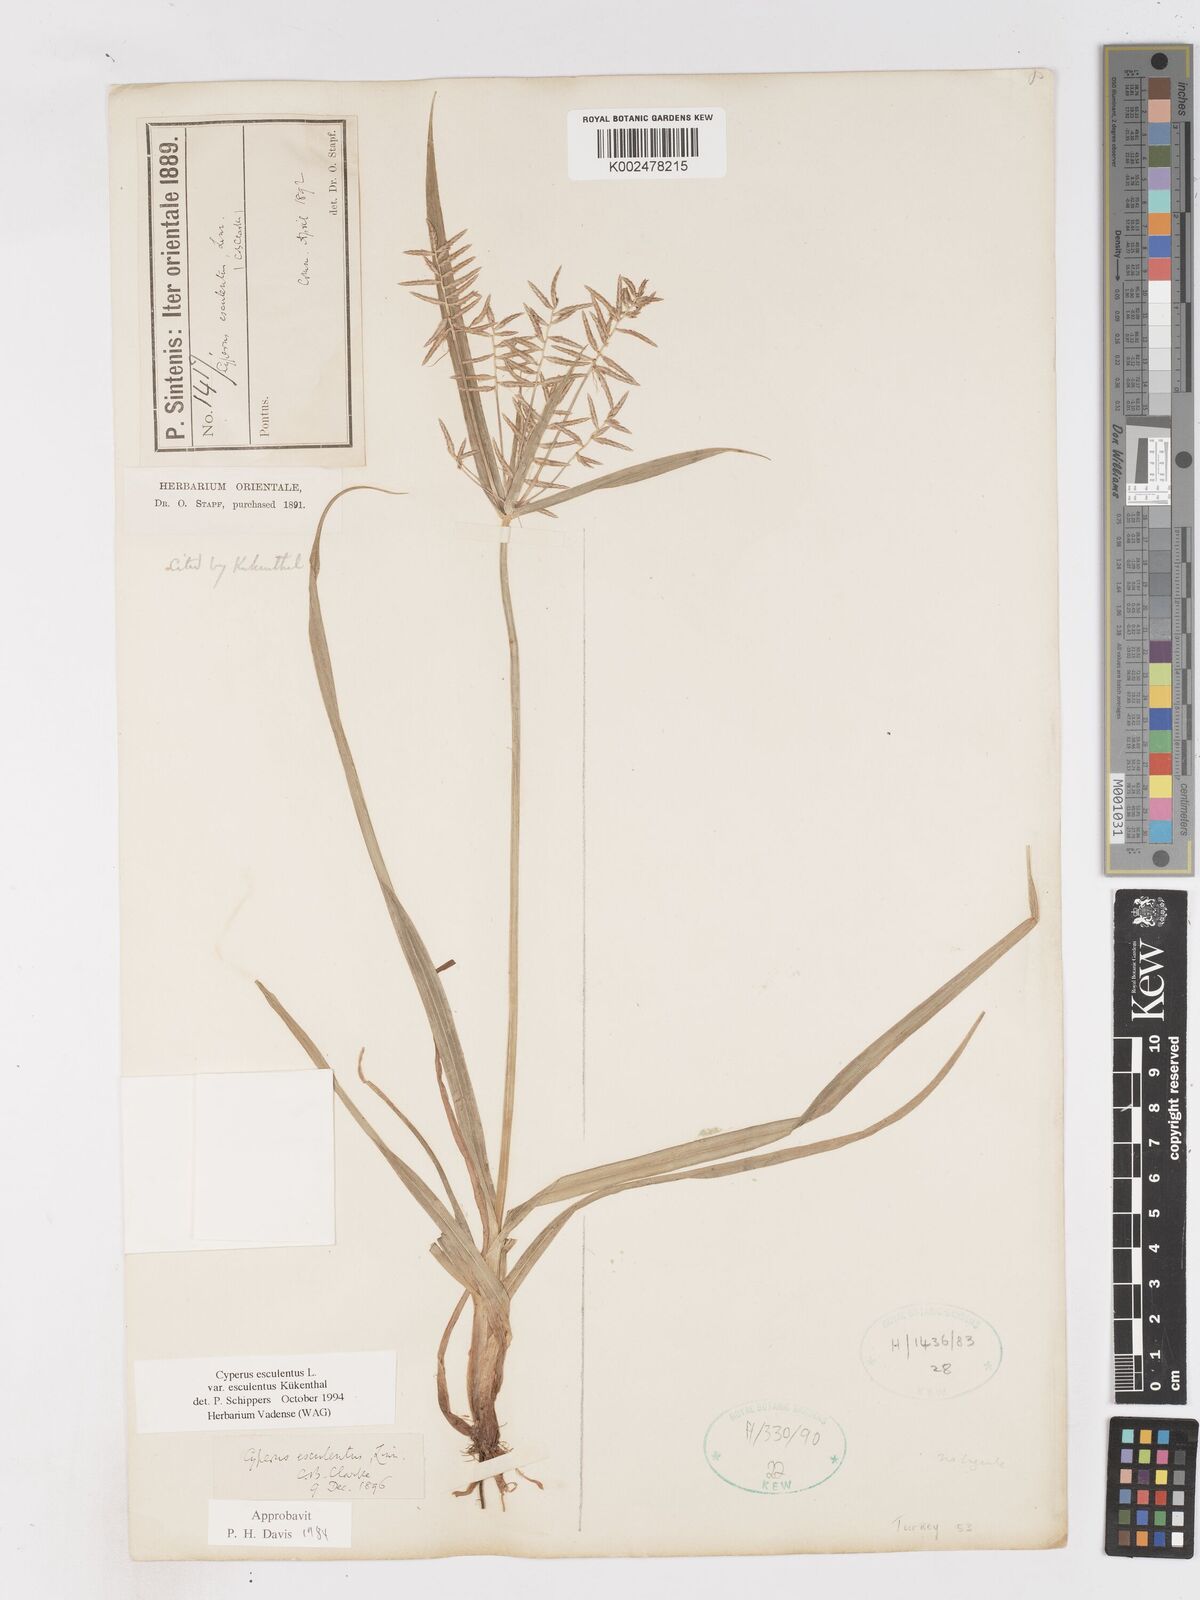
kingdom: Plantae
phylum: Tracheophyta
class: Liliopsida
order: Poales
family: Cyperaceae
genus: Cyperus
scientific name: Cyperus esculentus
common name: Yellow nutsedge
